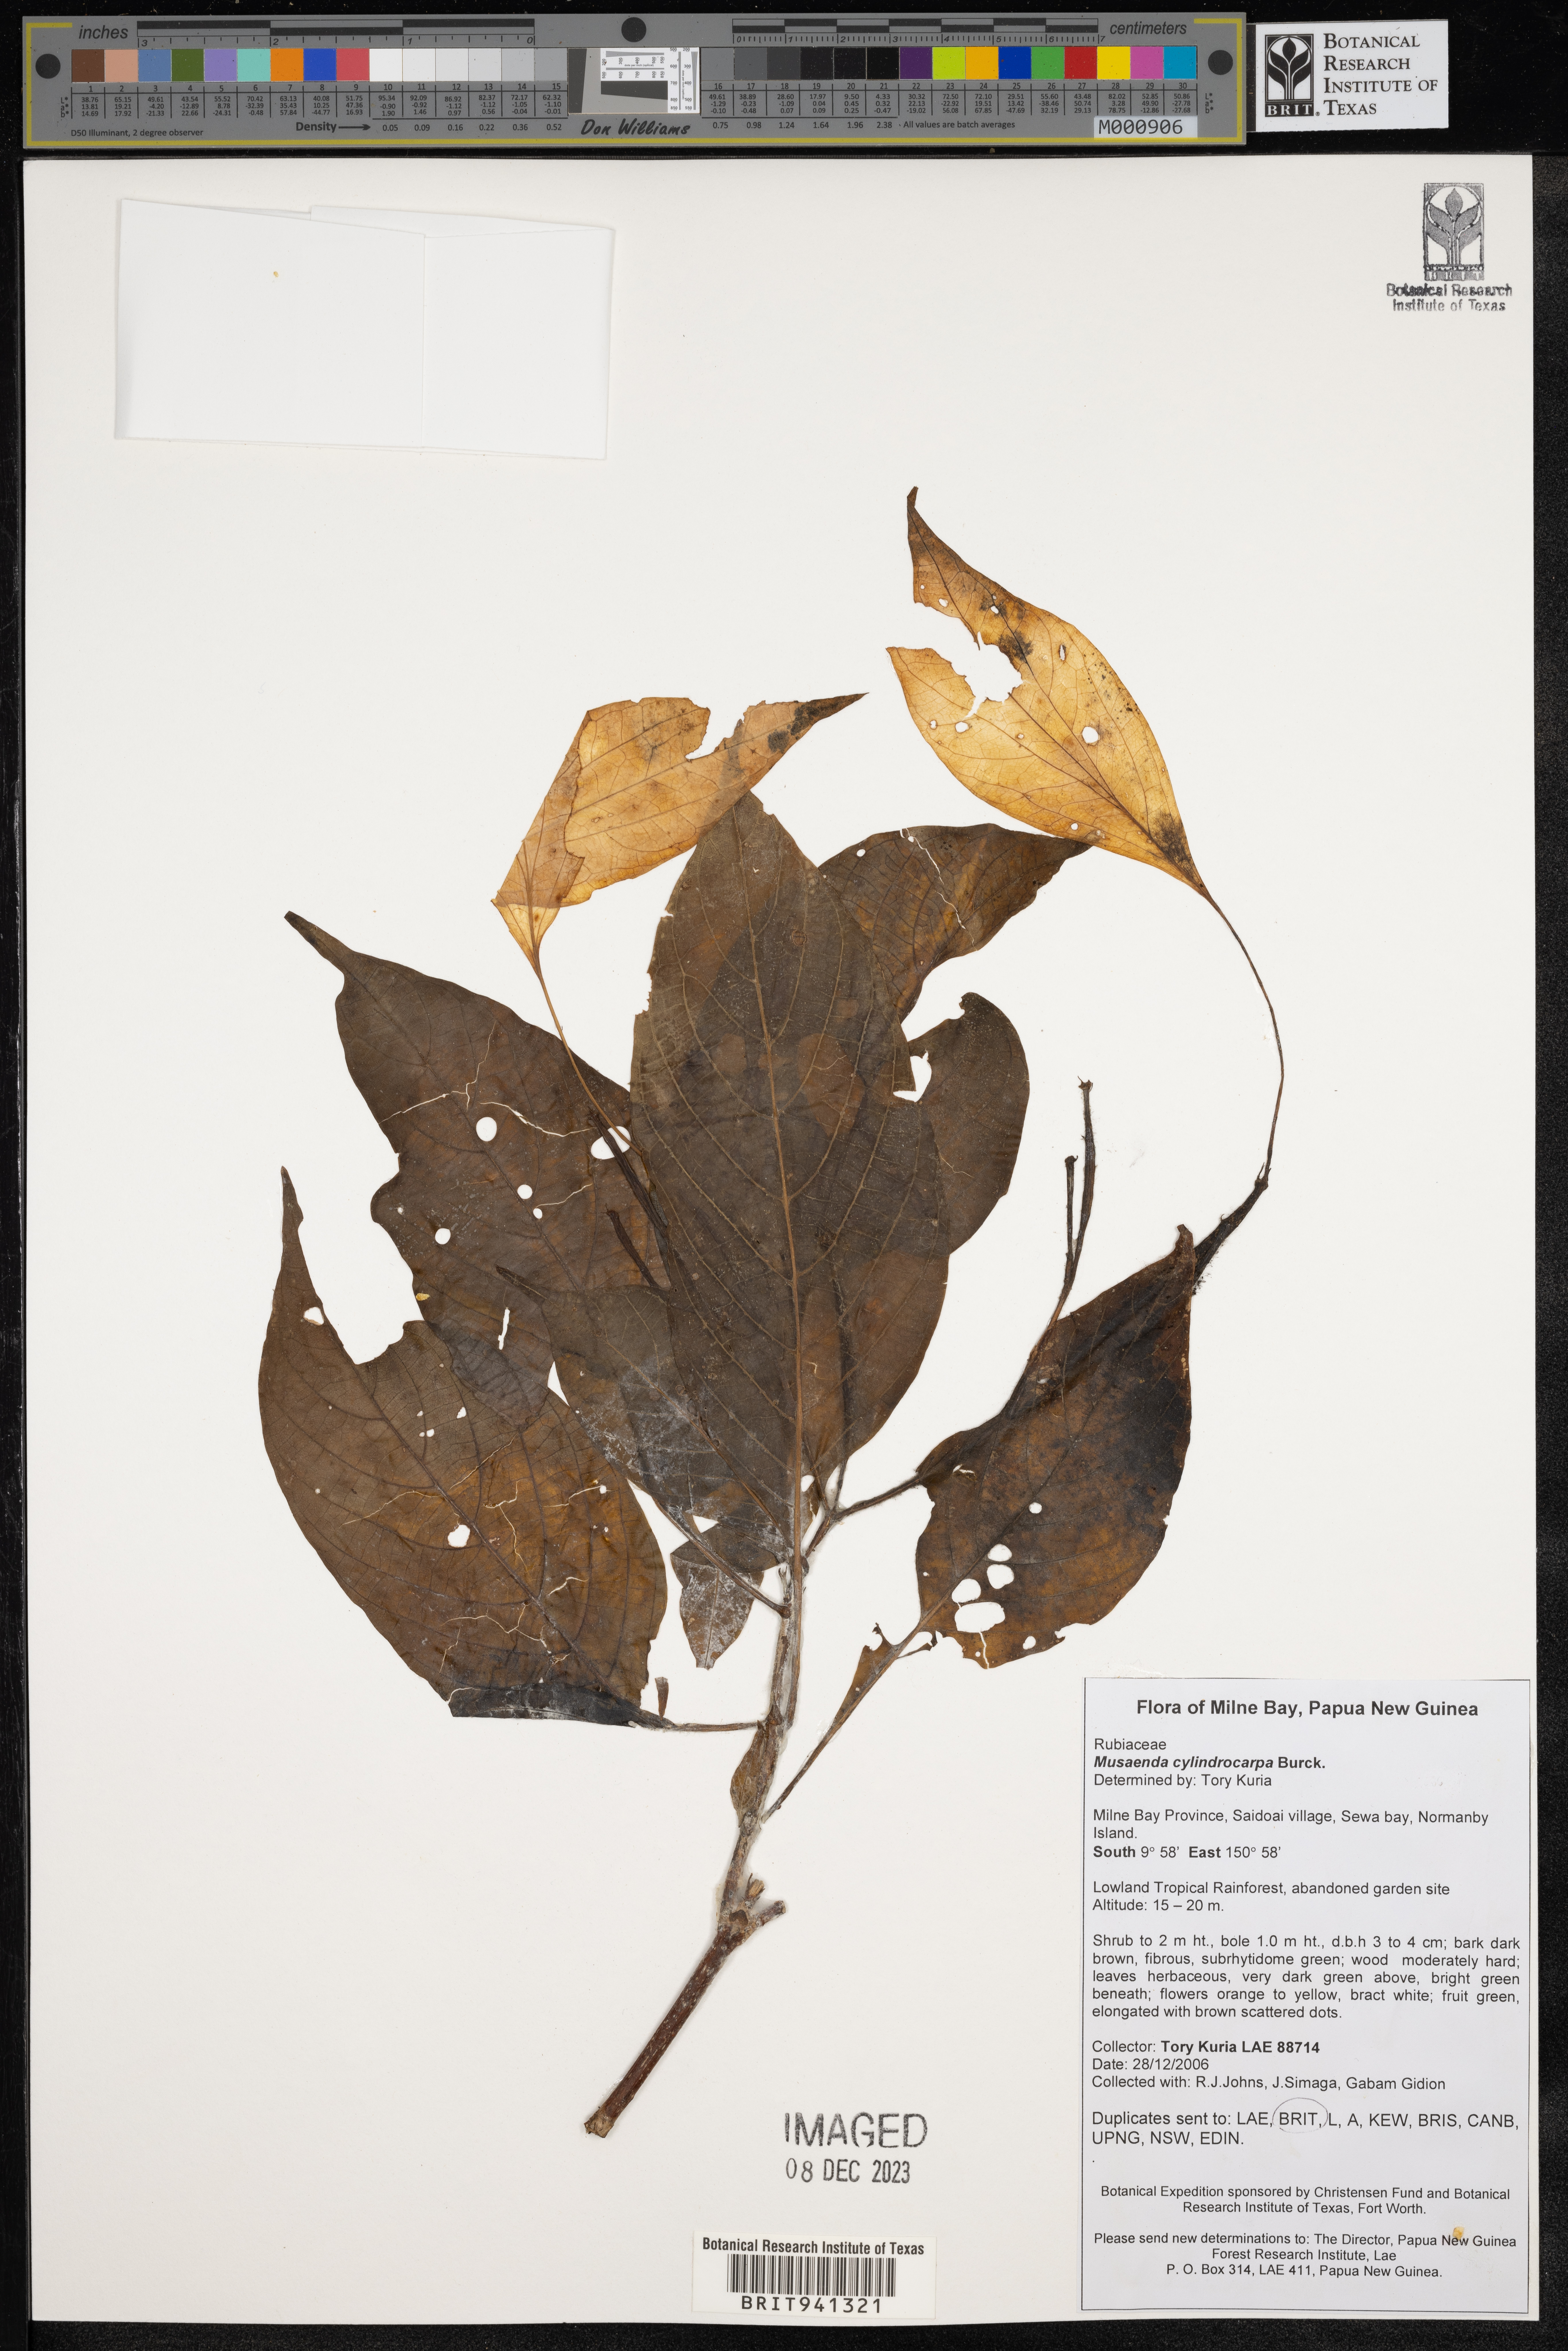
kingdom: Plantae
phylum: Tracheophyta
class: Magnoliopsida
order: Gentianales
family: Rubiaceae
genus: Mussaenda
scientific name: Mussaenda
